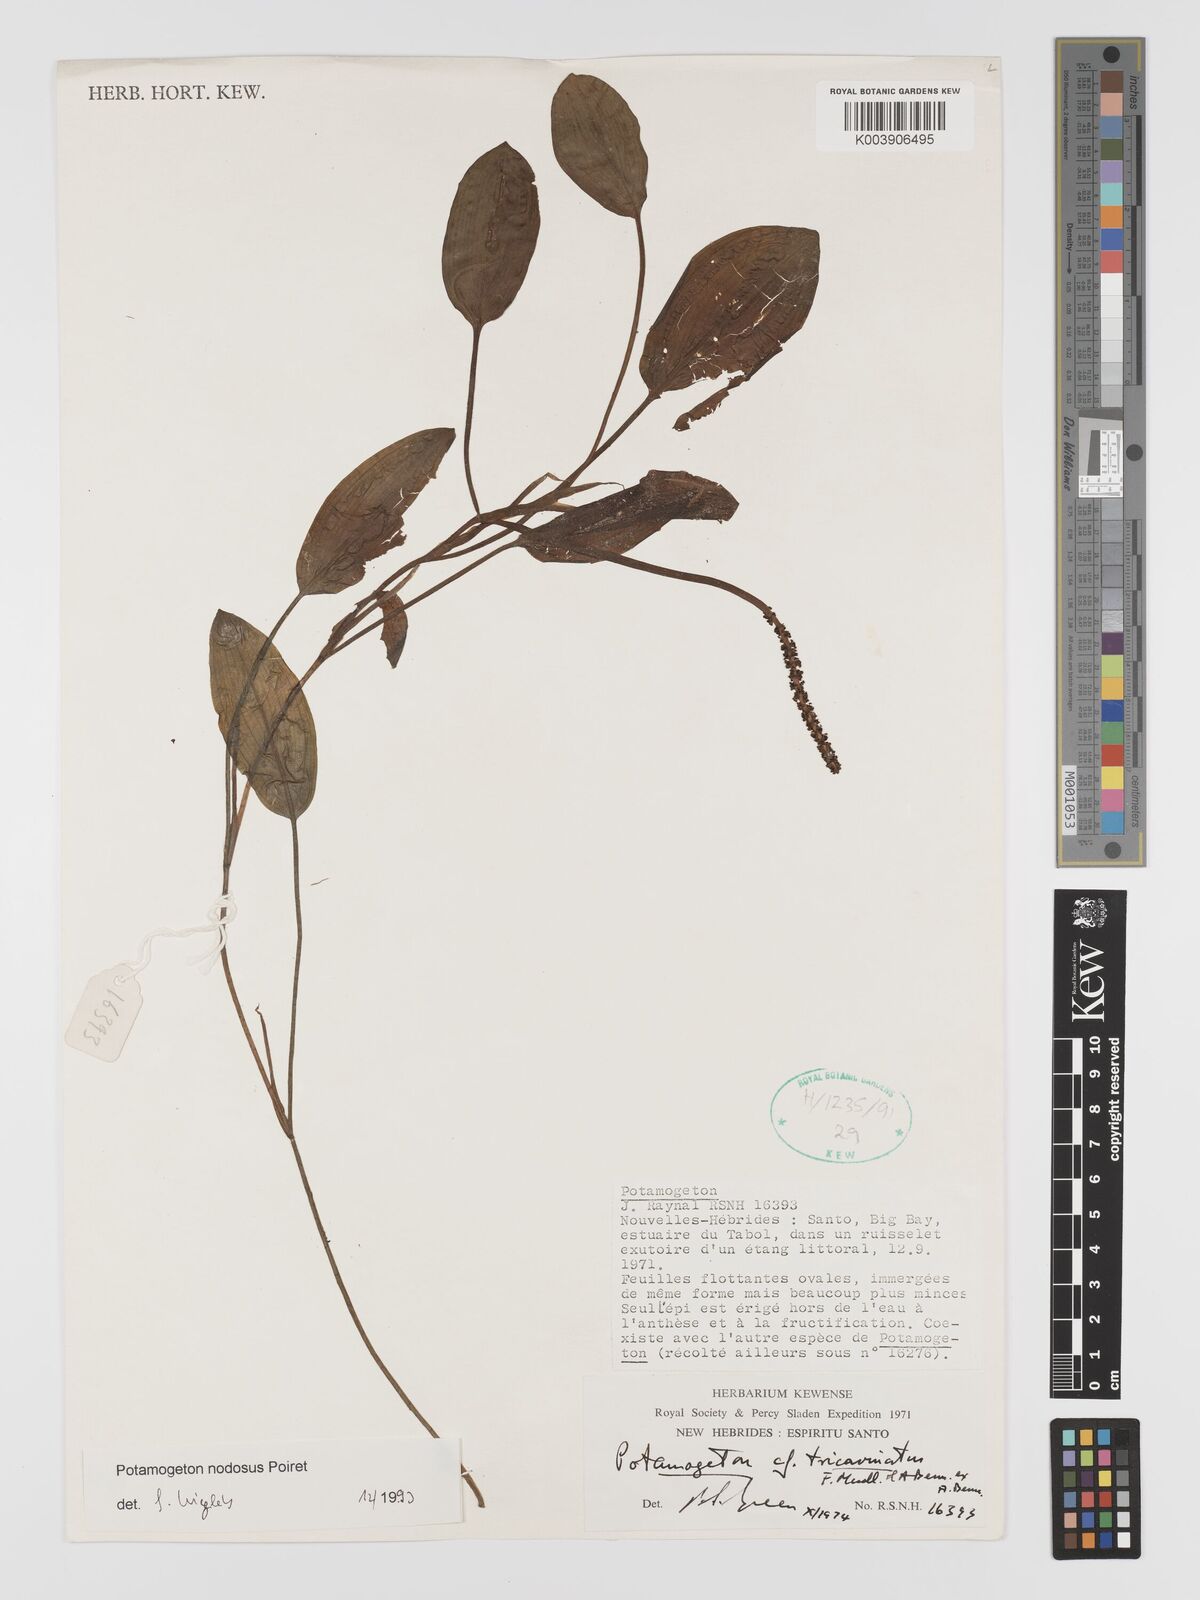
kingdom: Plantae
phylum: Tracheophyta
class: Liliopsida
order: Alismatales
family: Potamogetonaceae
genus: Potamogeton
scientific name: Potamogeton nodosus
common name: Loddon pondweed
